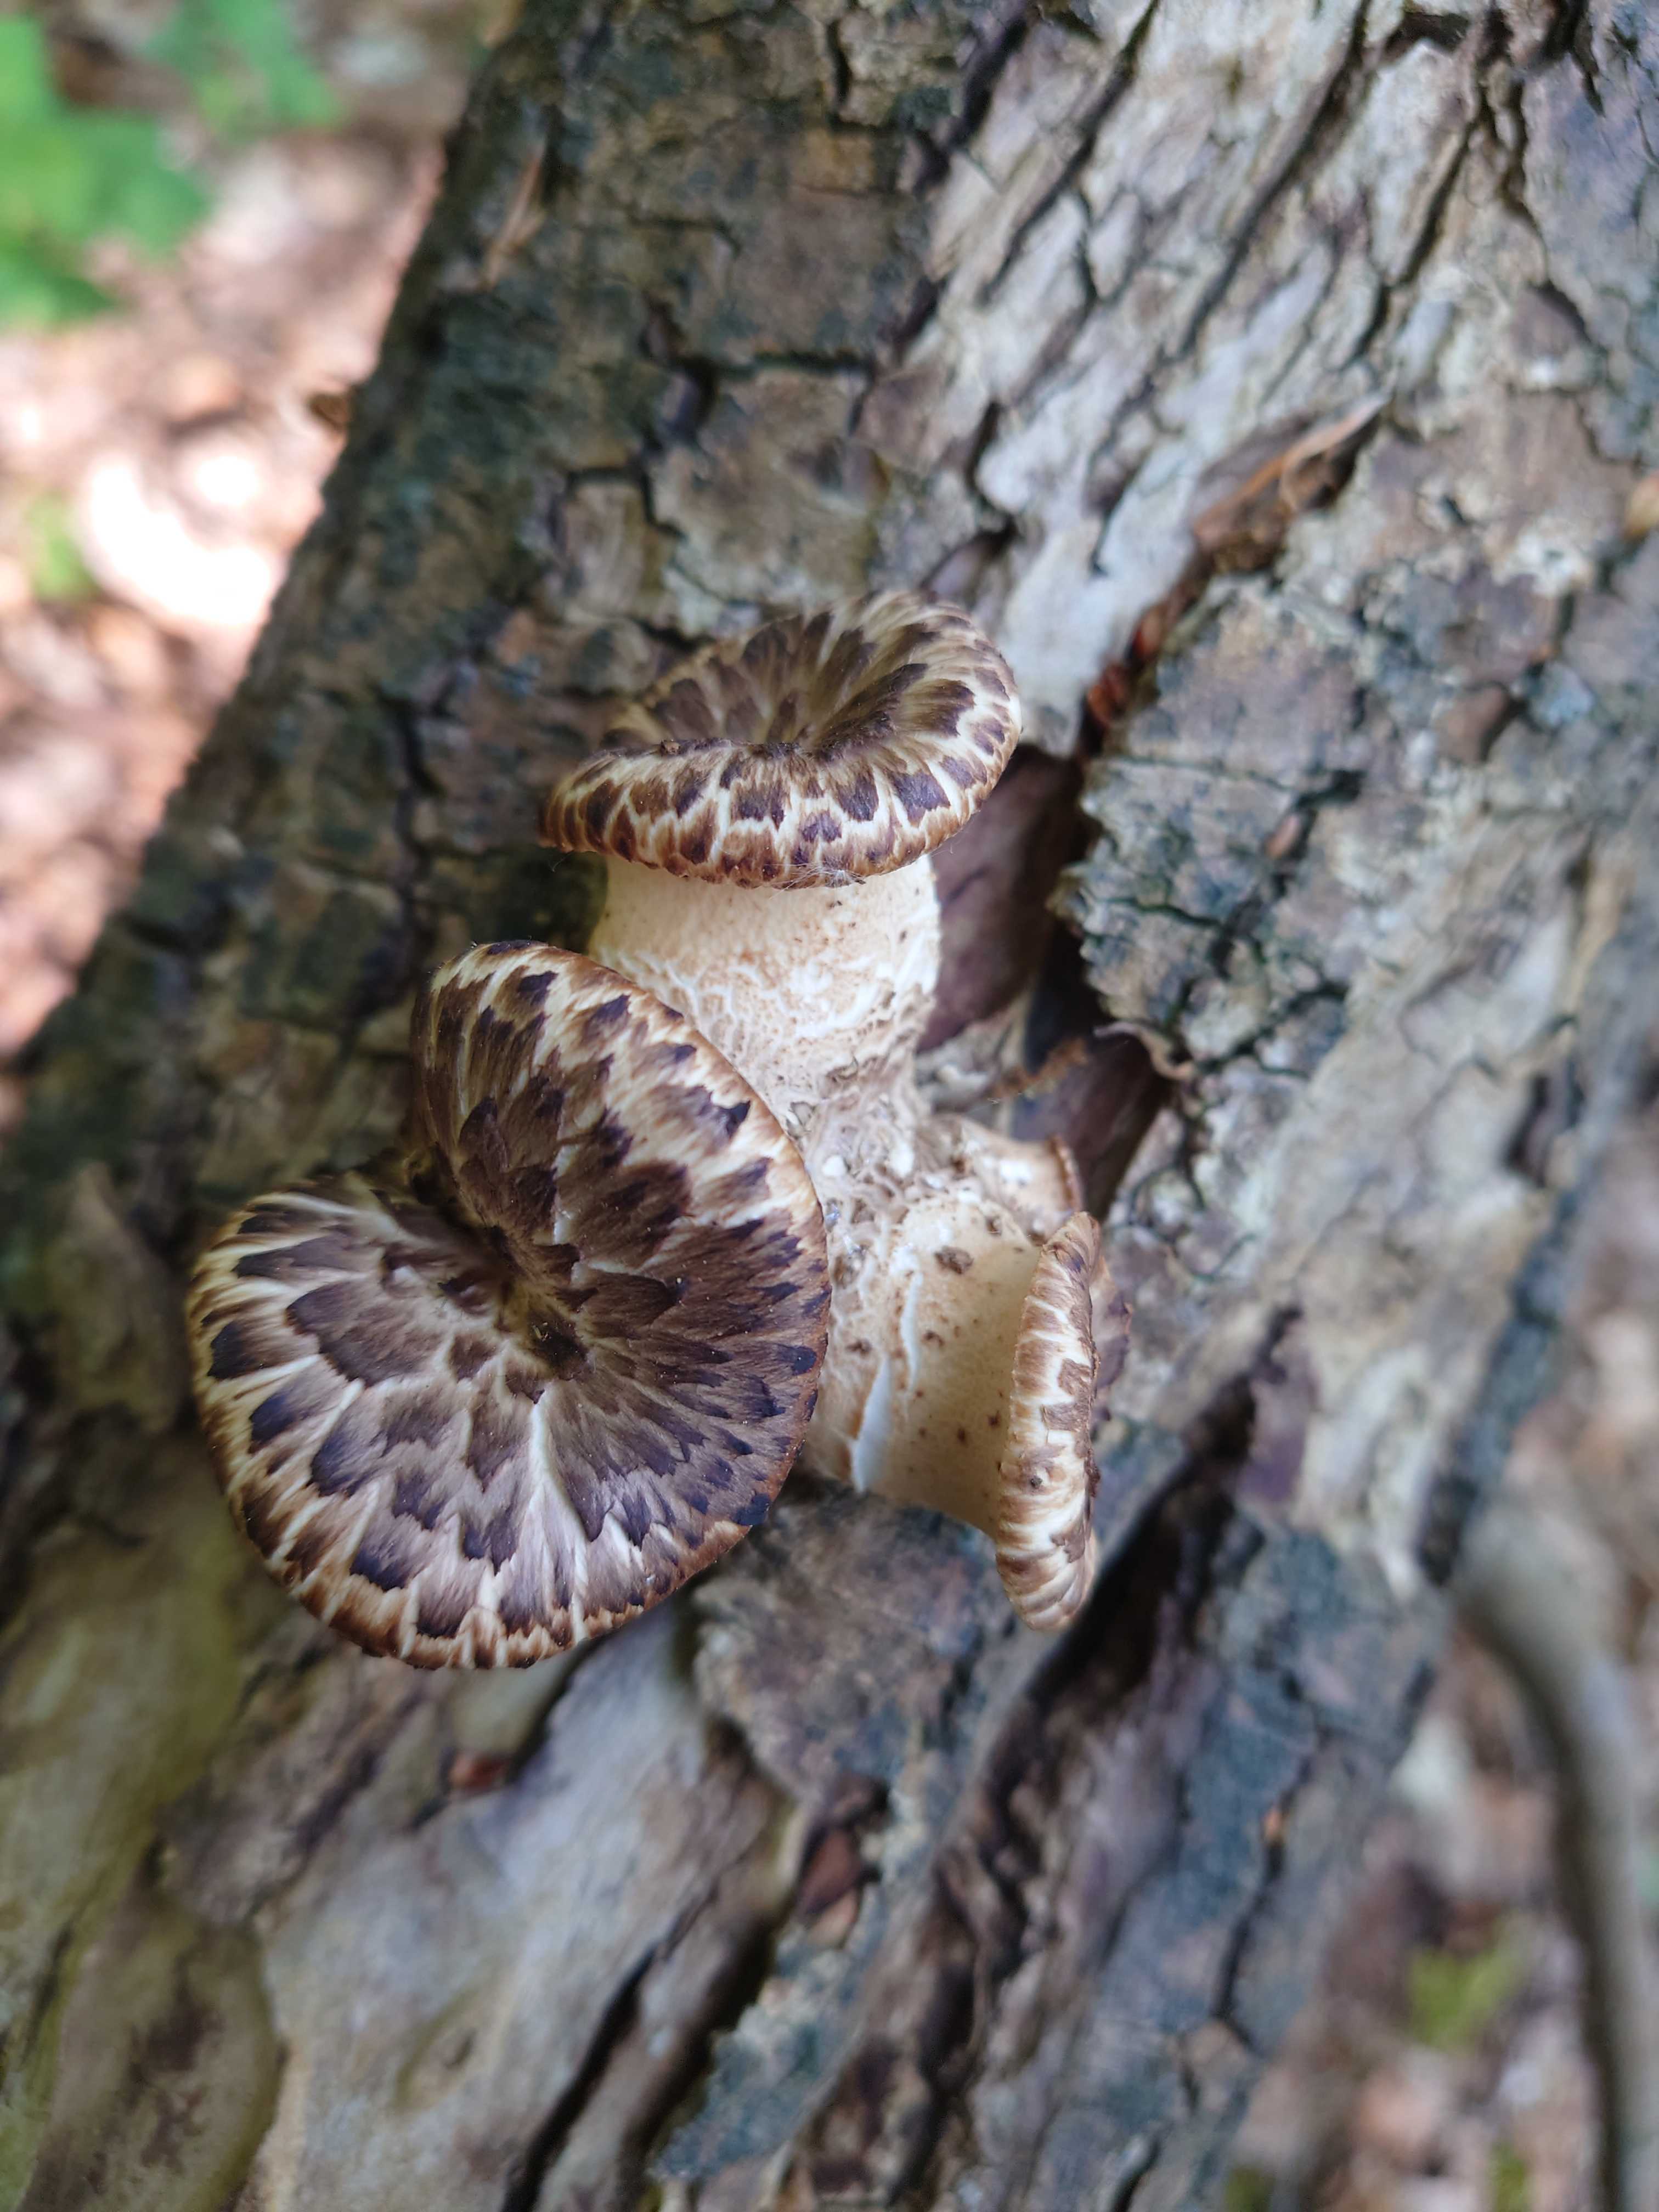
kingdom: Fungi
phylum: Basidiomycota
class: Agaricomycetes
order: Polyporales
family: Polyporaceae
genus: Cerioporus
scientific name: Cerioporus squamosus
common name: skællet stilkporesvamp
